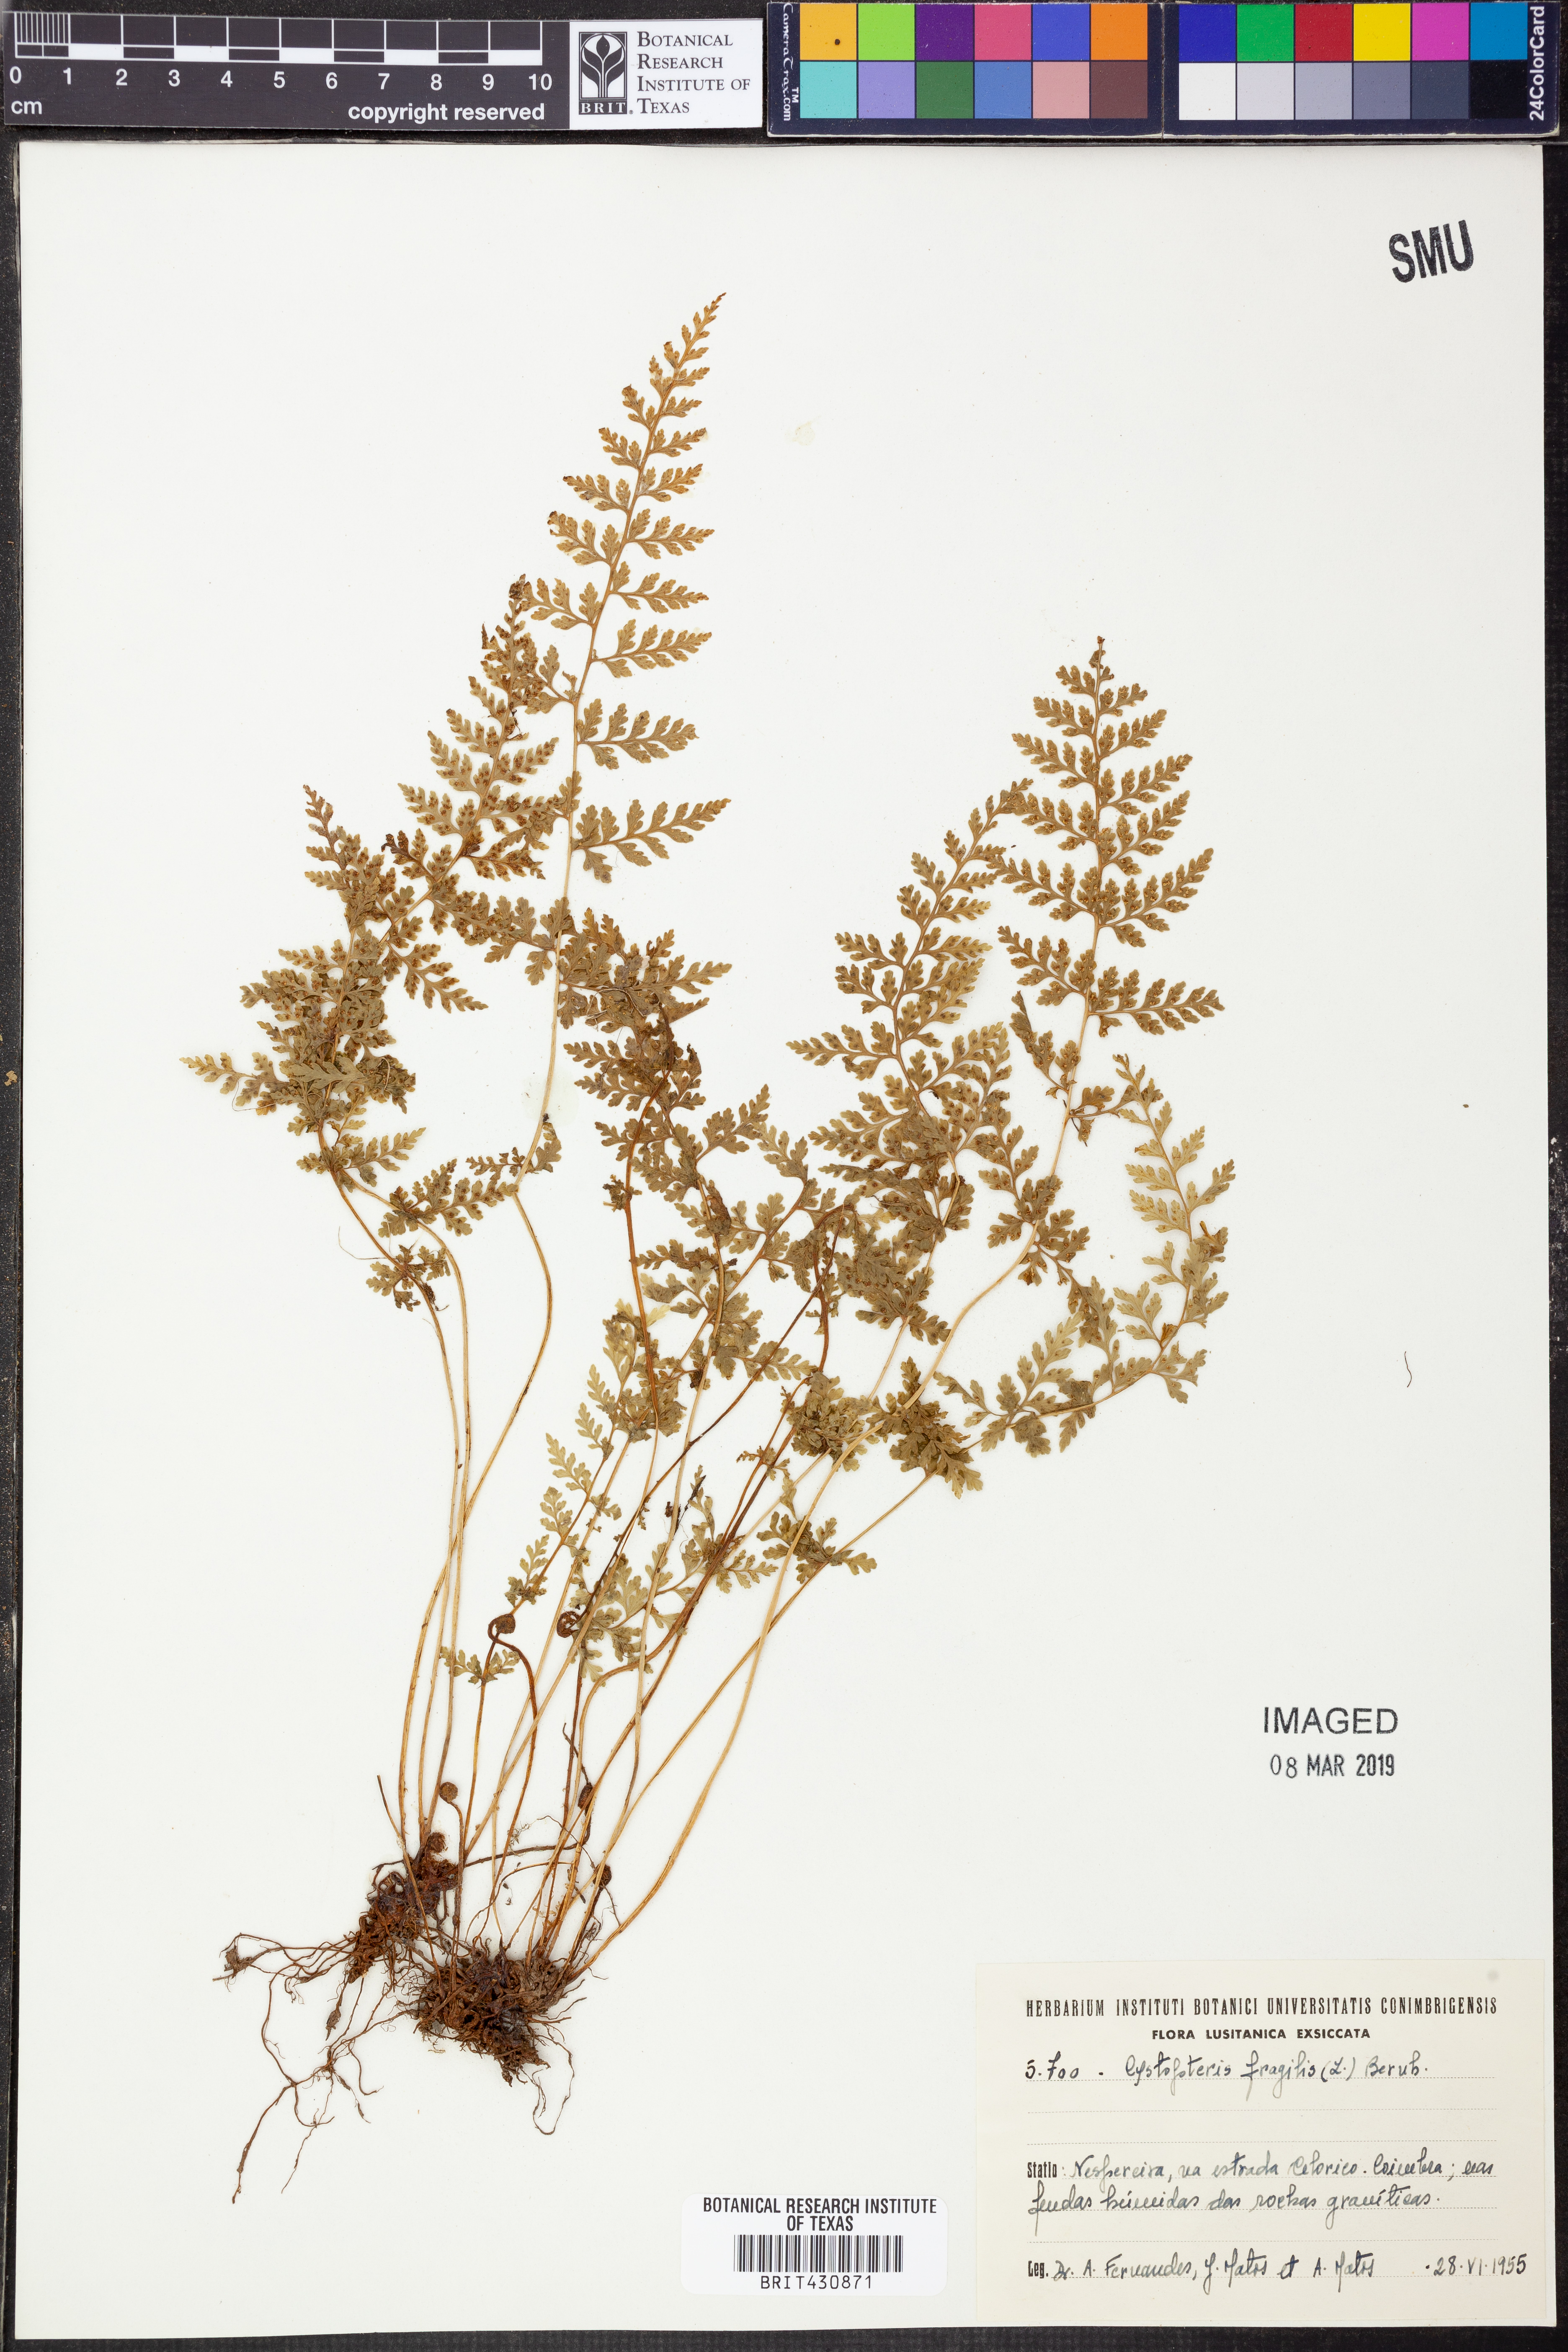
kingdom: Plantae
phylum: Tracheophyta
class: Polypodiopsida
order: Polypodiales
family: Cystopteridaceae
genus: Cystopteris
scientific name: Cystopteris fragilis
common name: Brittle bladder fern
